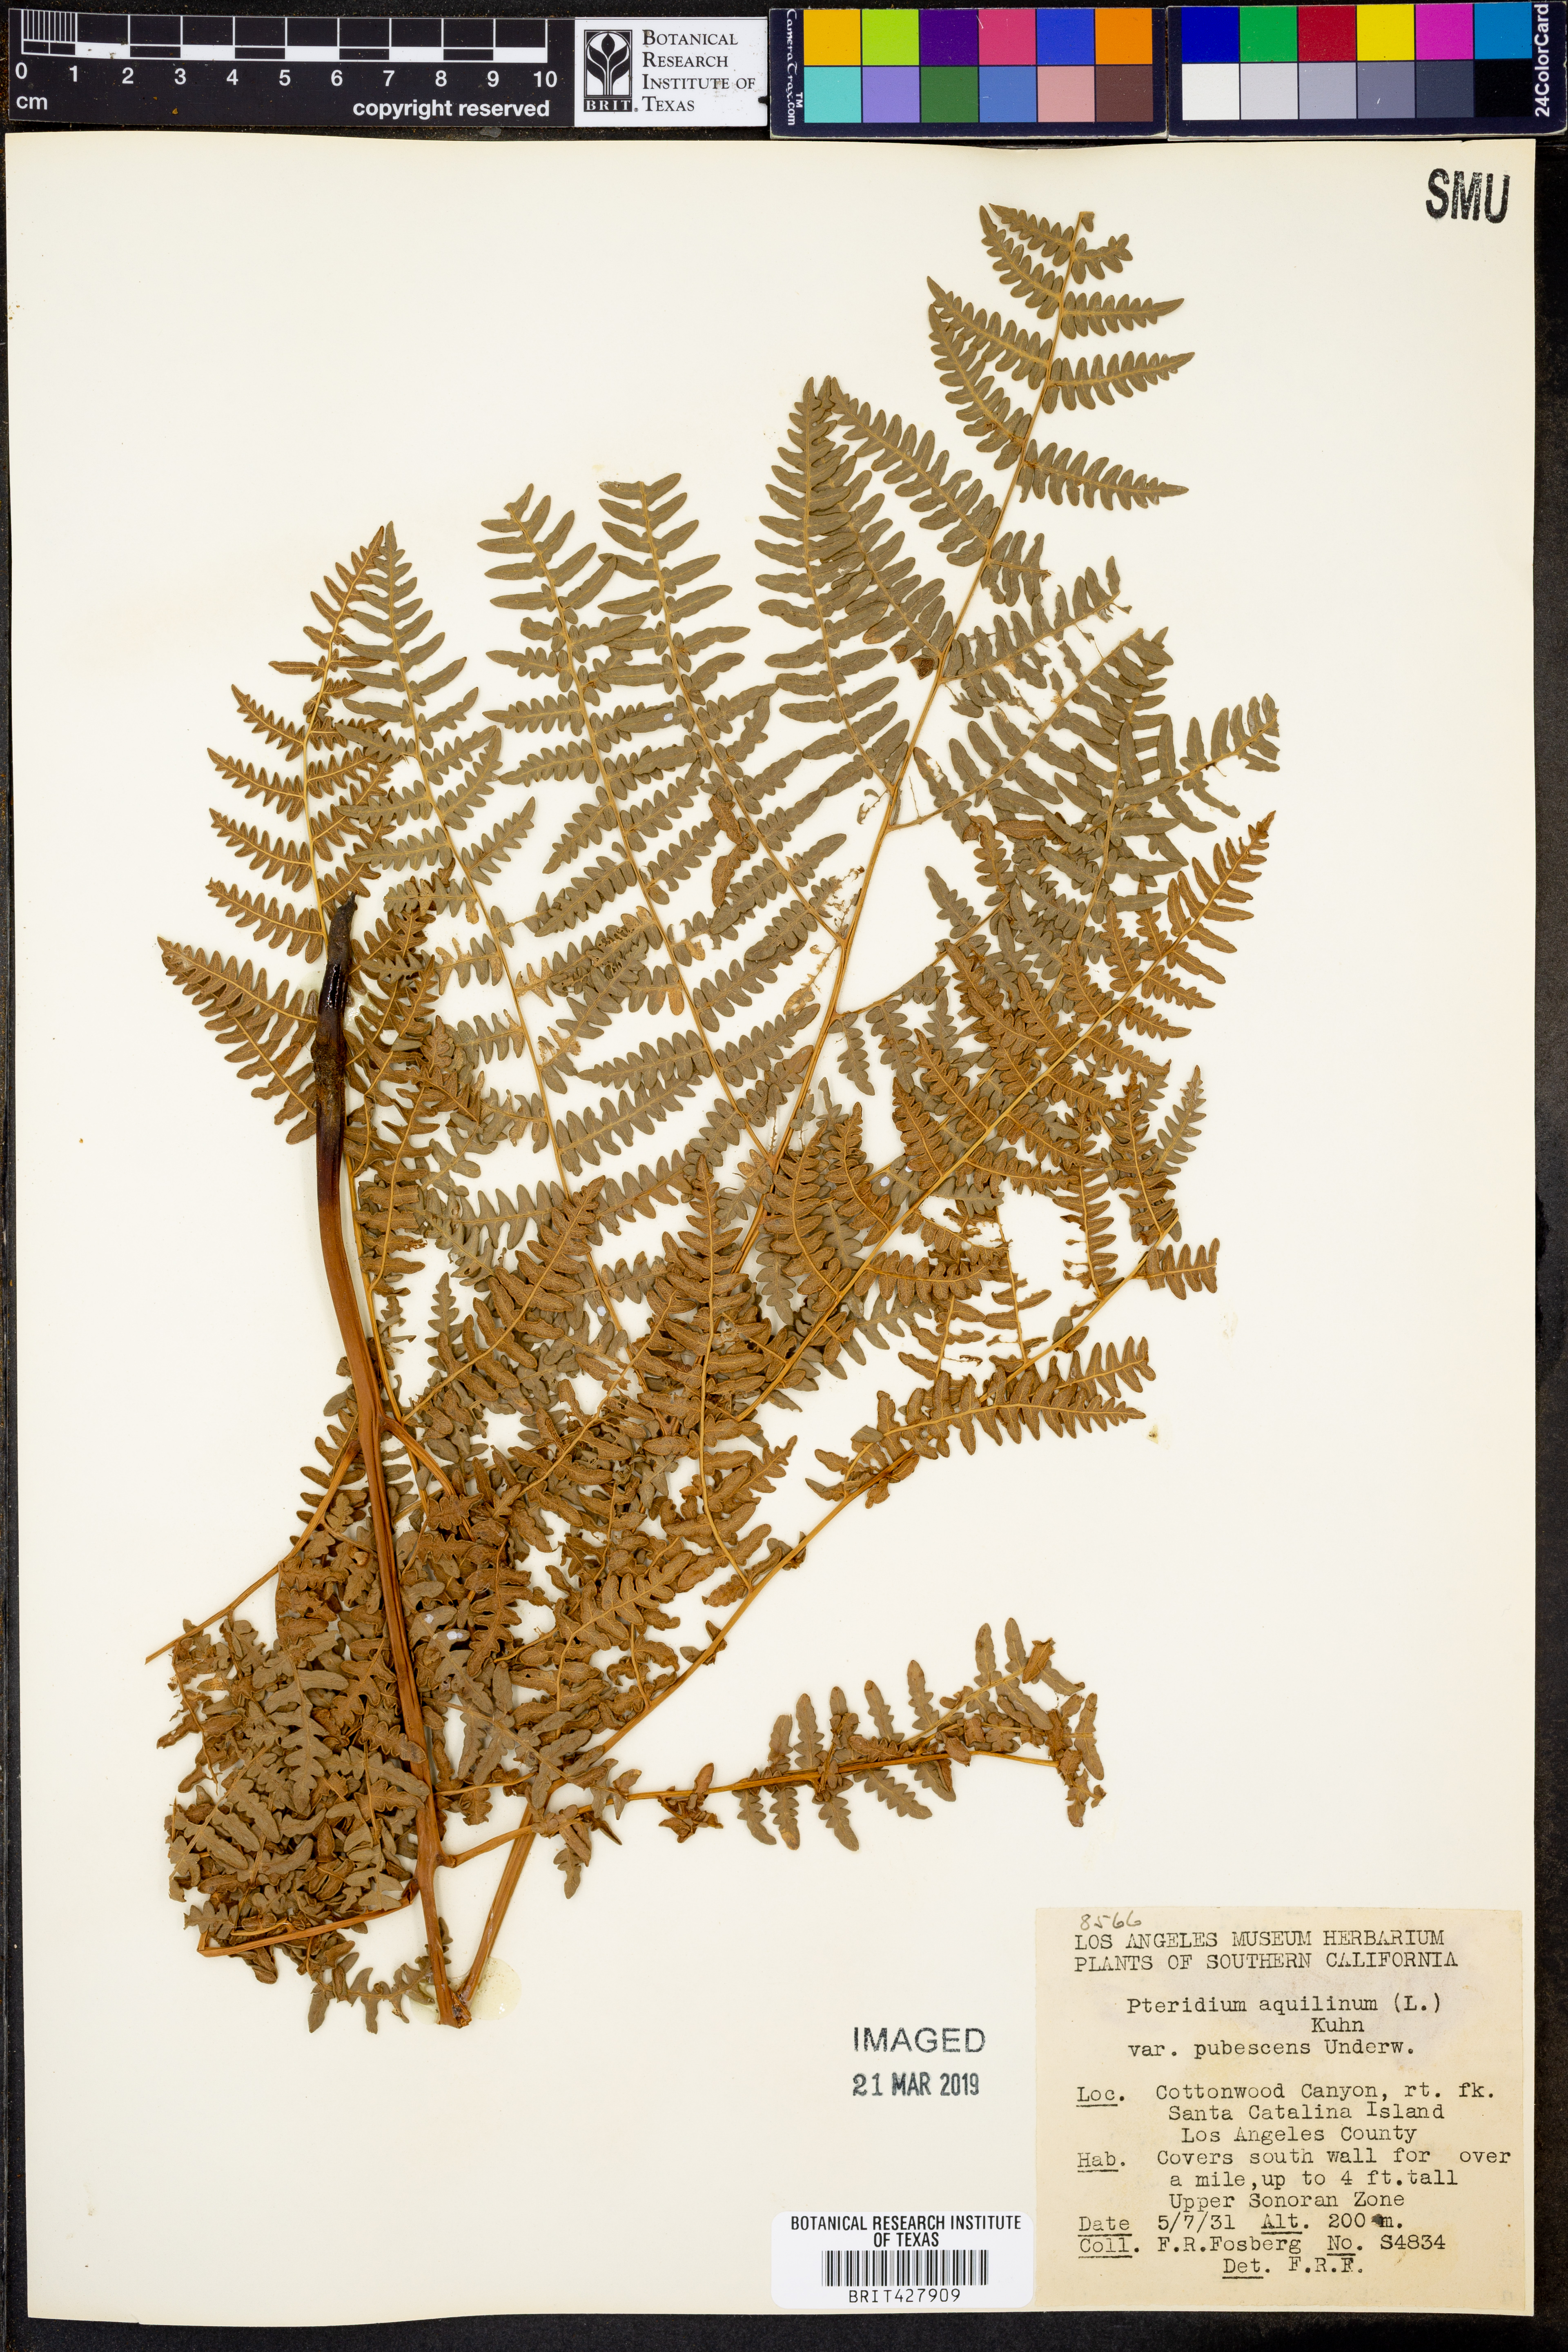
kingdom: Plantae
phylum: Tracheophyta
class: Polypodiopsida
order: Polypodiales
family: Dennstaedtiaceae
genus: Pteridium
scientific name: Pteridium aquilinum
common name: Bracken
